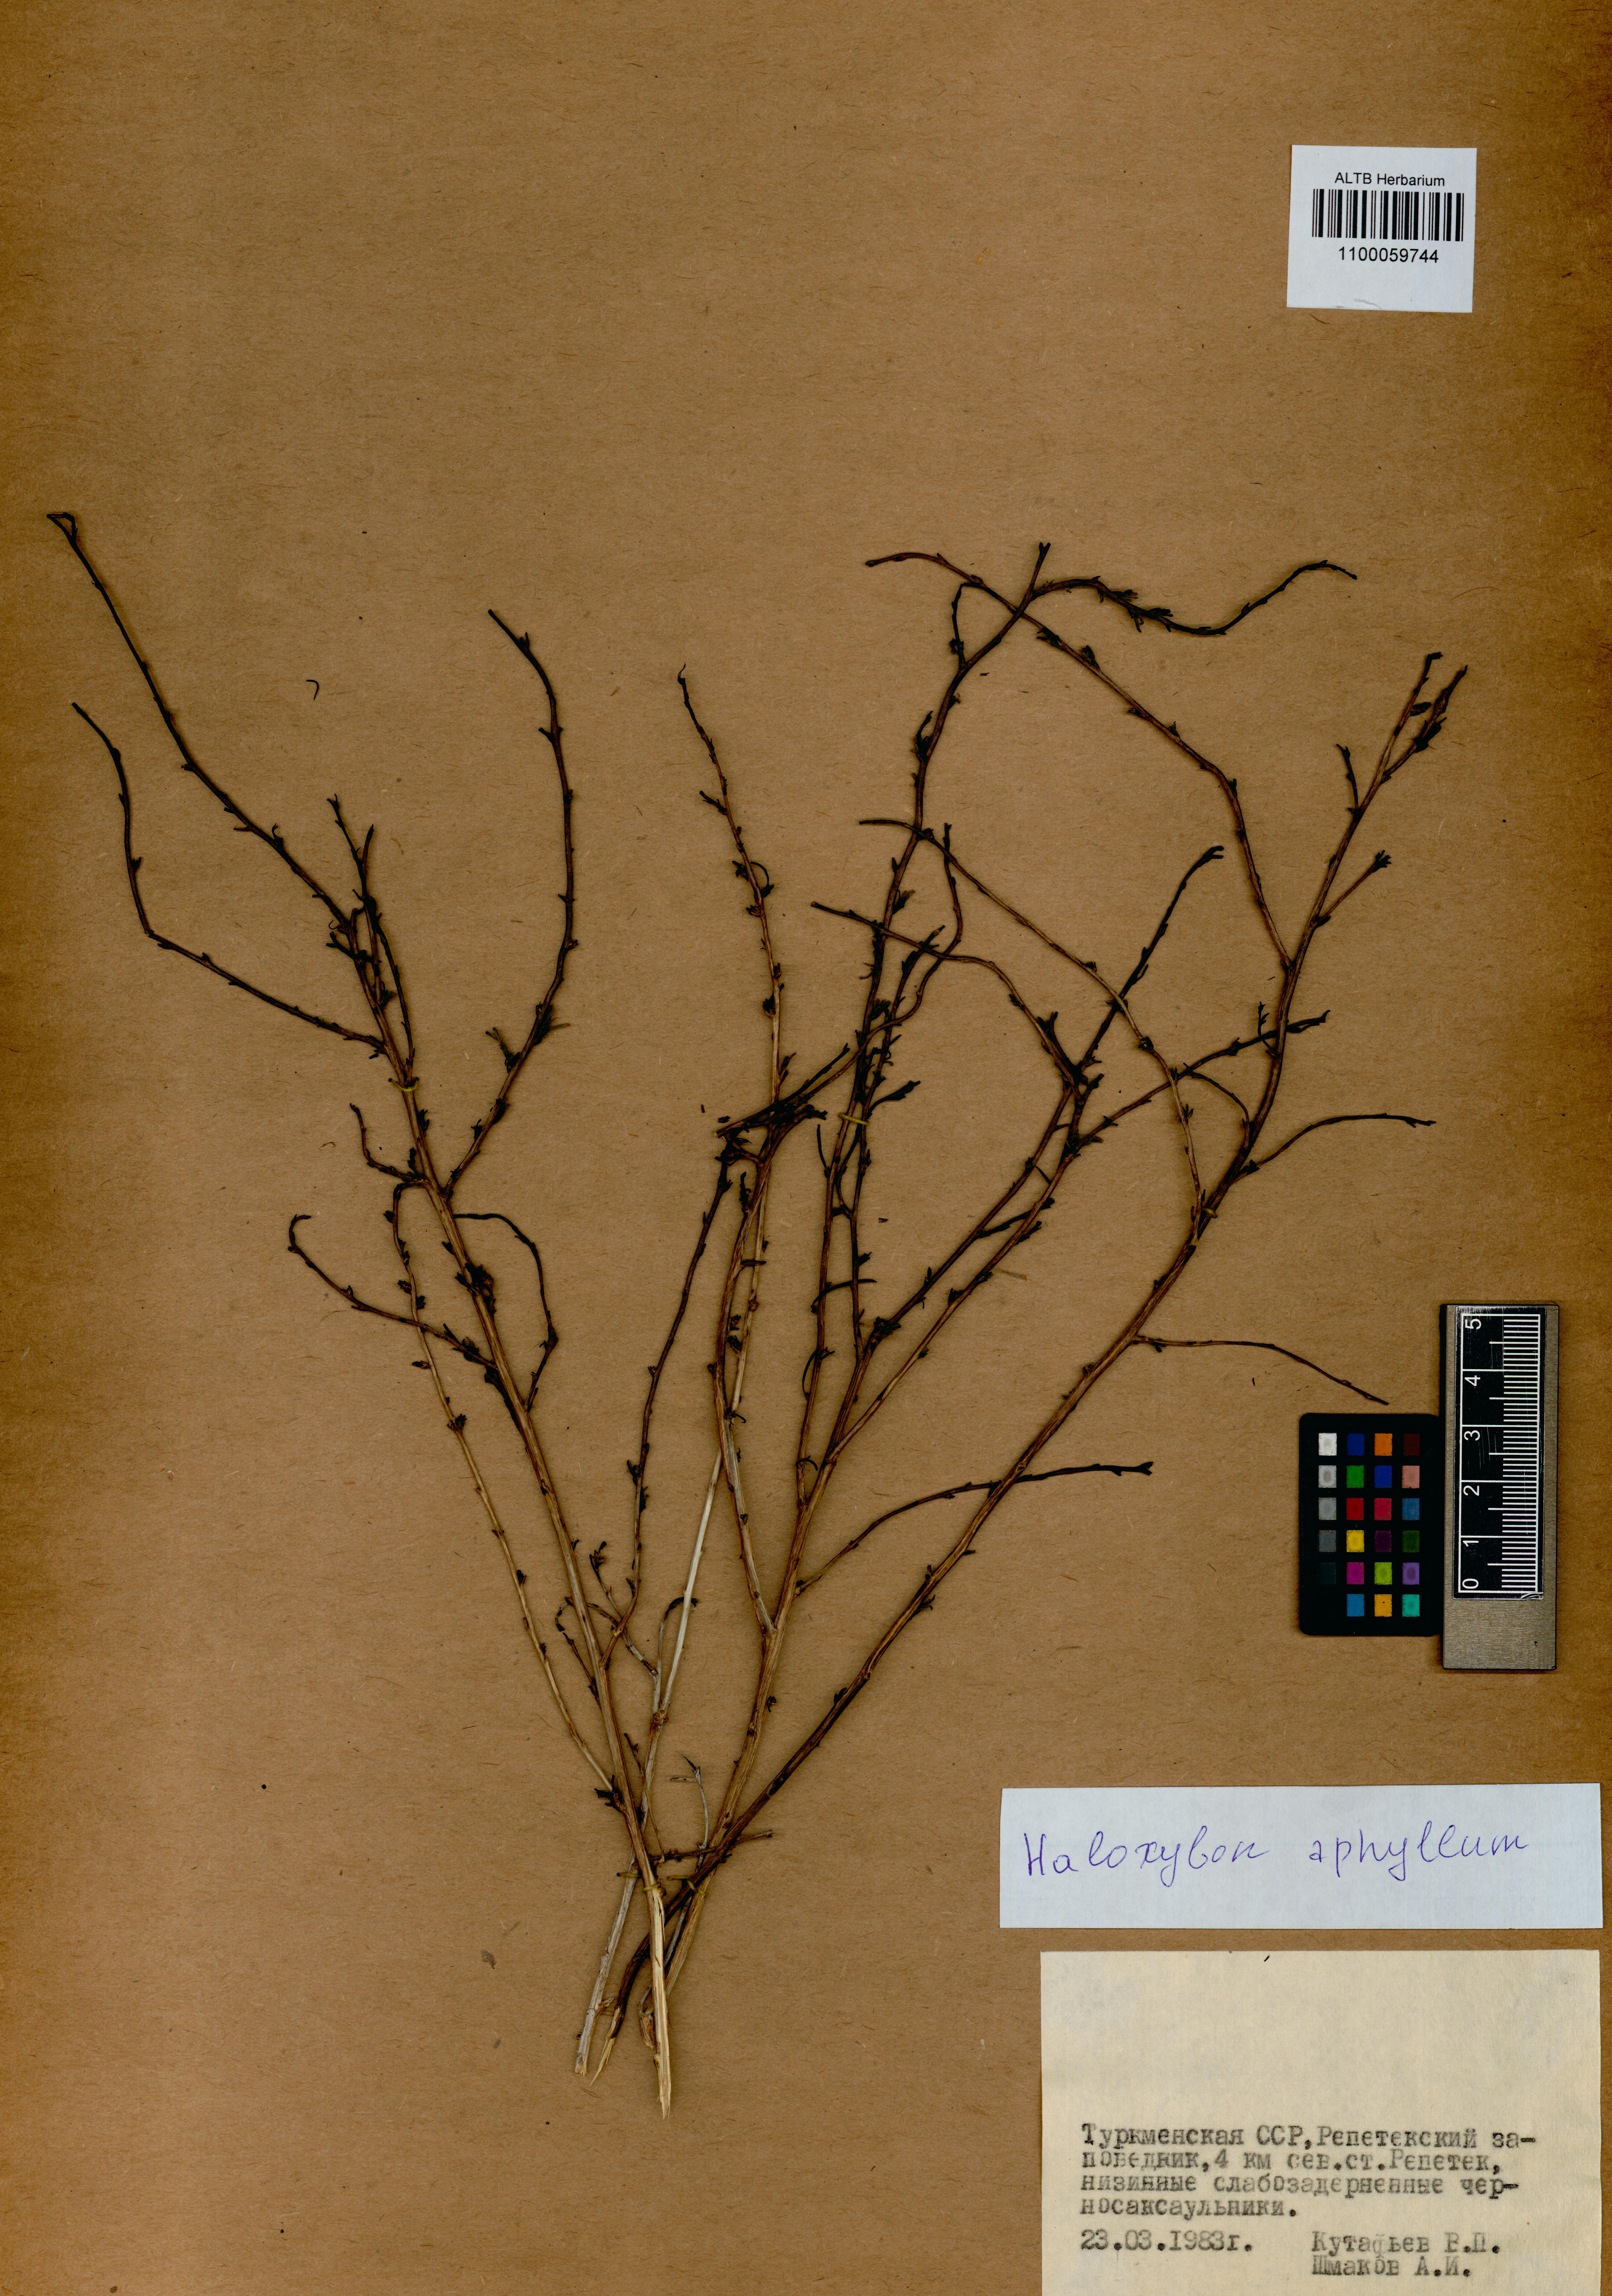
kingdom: Plantae
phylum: Tracheophyta
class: Magnoliopsida
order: Caryophyllales
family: Amaranthaceae
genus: Haloxylon
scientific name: Haloxylon ammodendron
